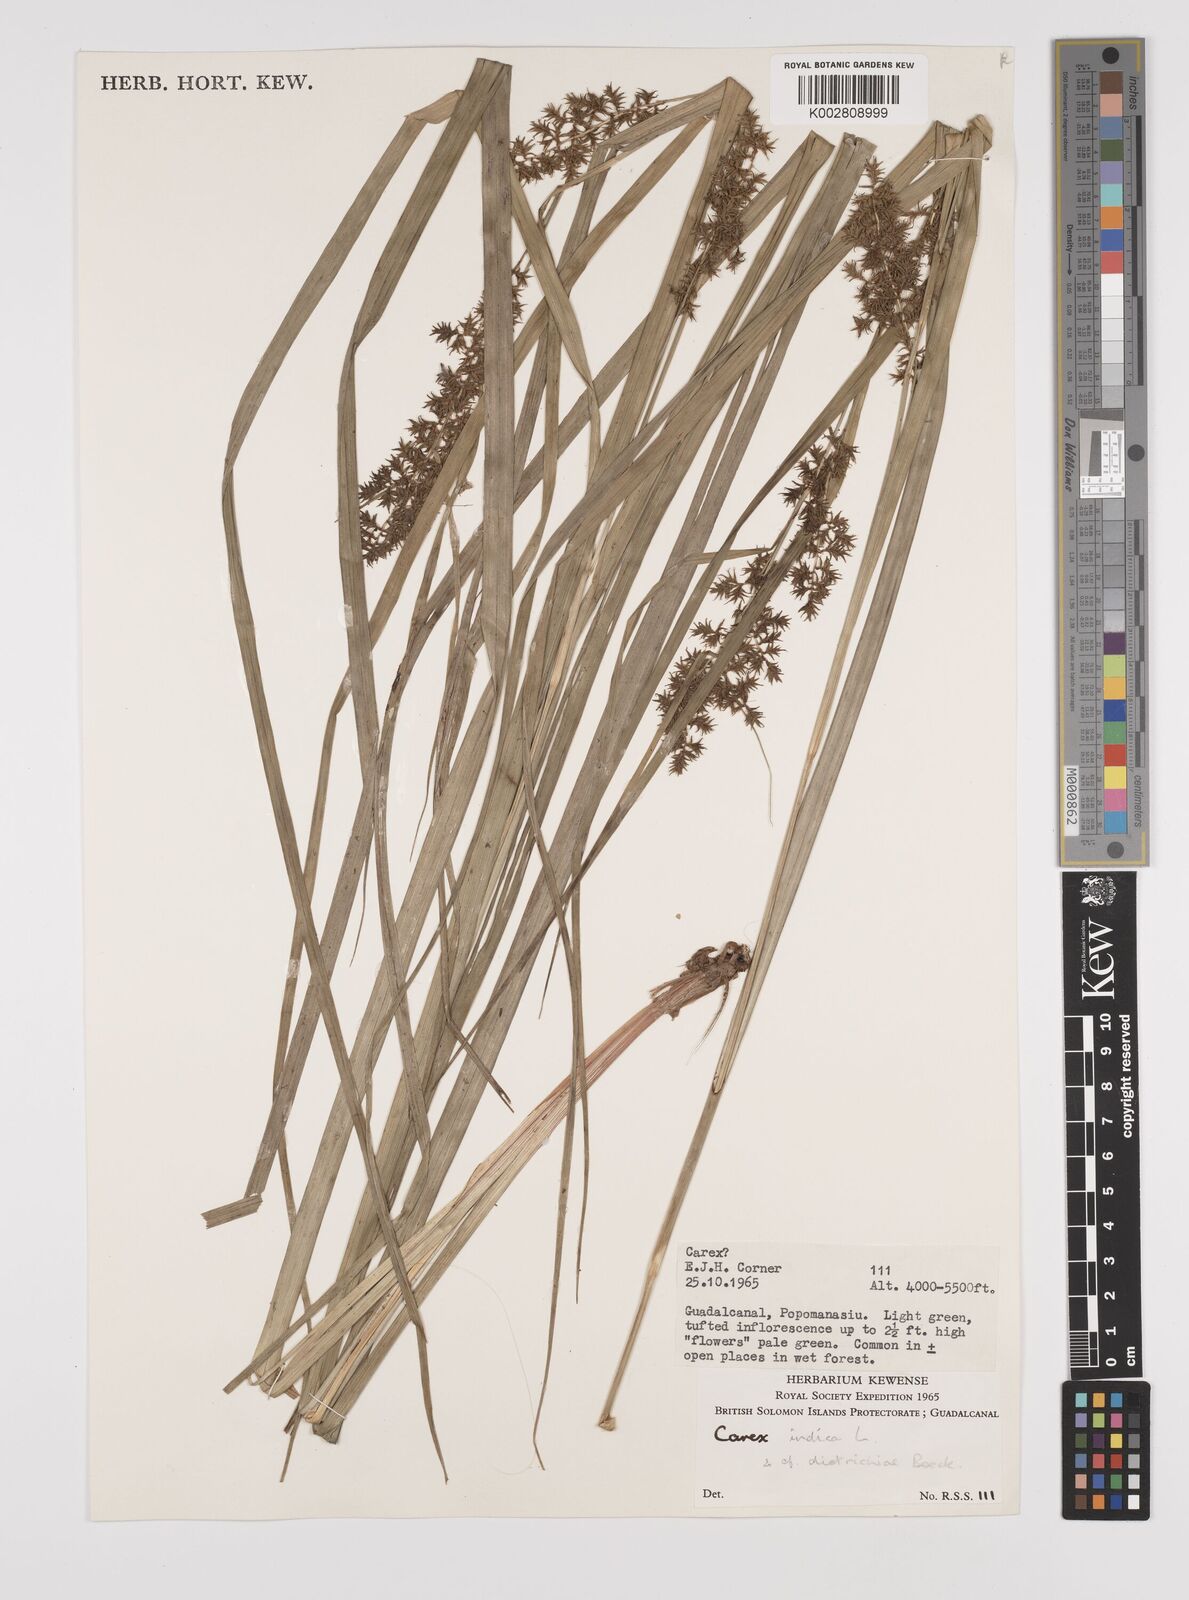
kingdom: Plantae
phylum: Tracheophyta
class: Liliopsida
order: Poales
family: Cyperaceae
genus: Carex
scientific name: Carex indica
